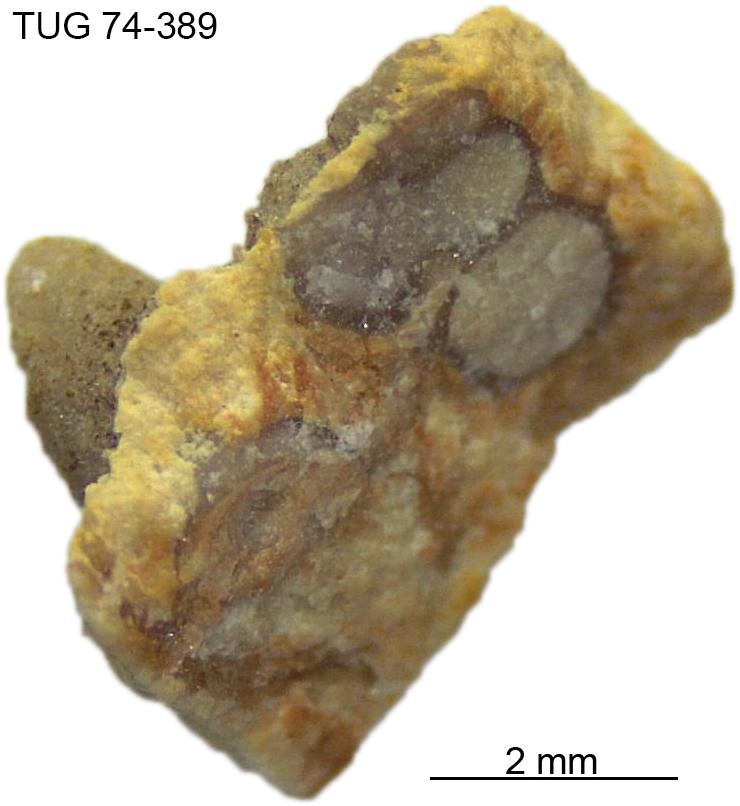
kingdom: Animalia
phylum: Mollusca
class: Gastropoda
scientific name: Gastropoda
